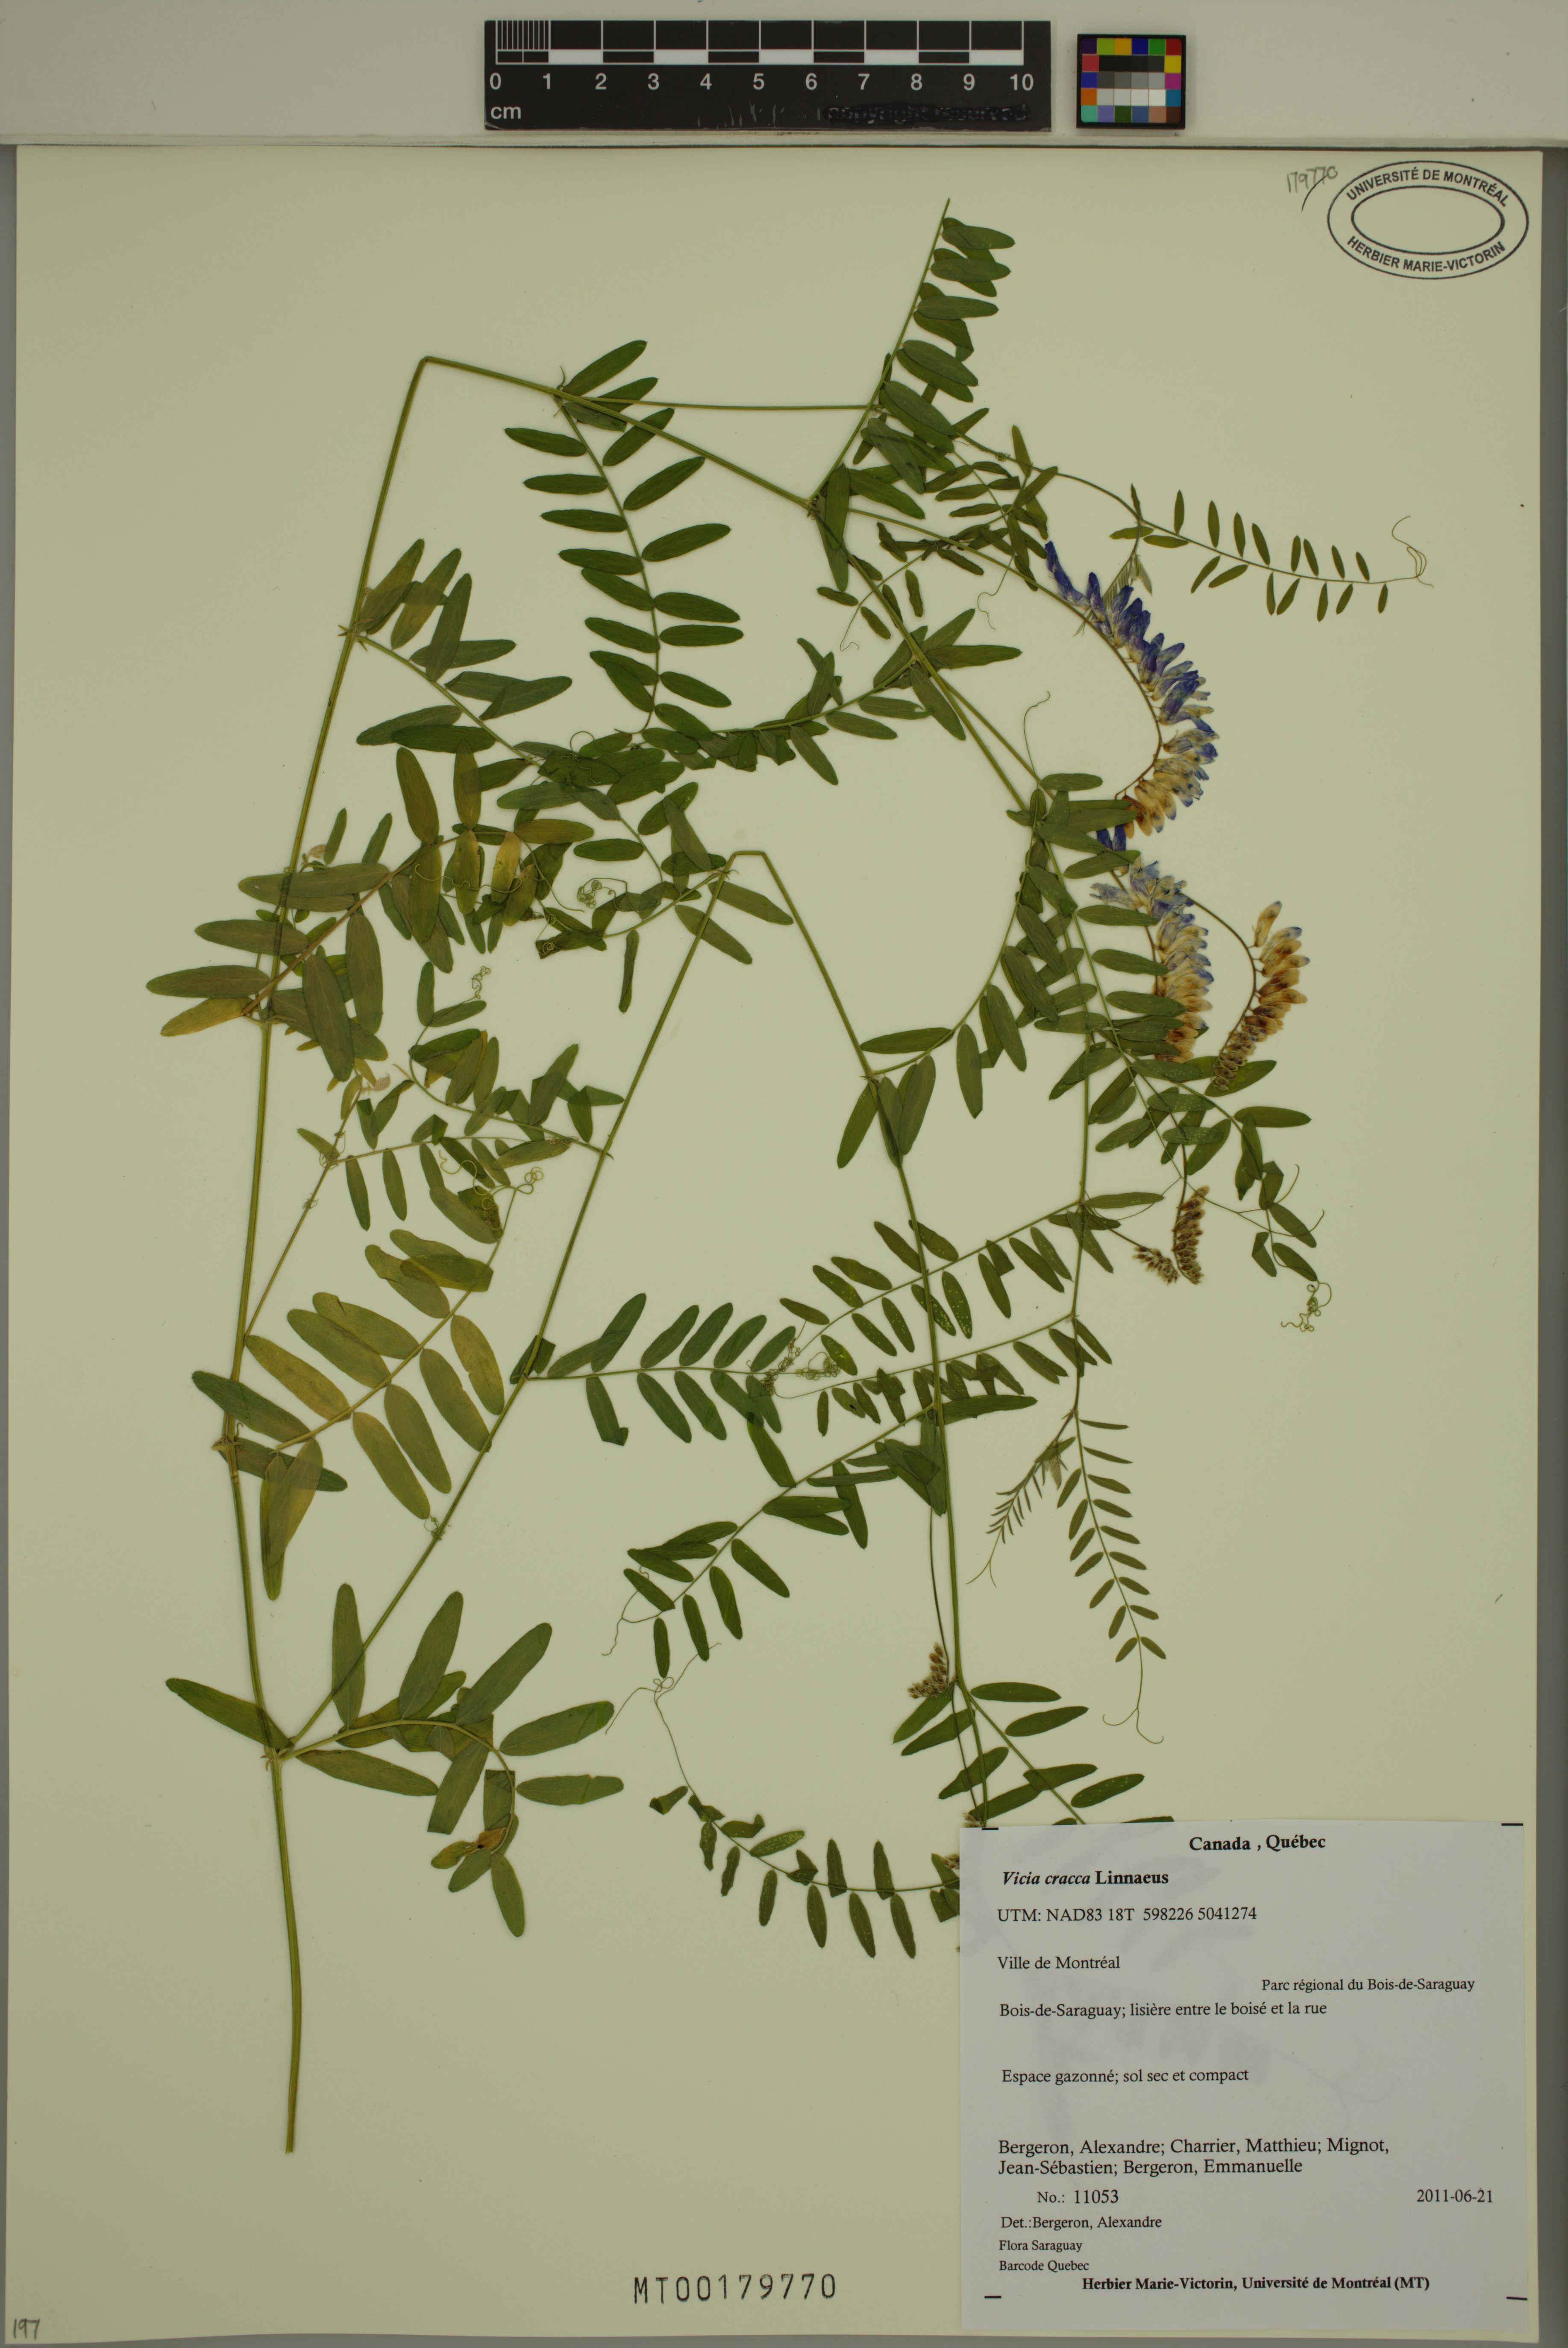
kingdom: Plantae
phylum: Tracheophyta
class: Magnoliopsida
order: Fabales
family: Fabaceae
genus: Vicia
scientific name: Vicia cracca
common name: Bird vetch
